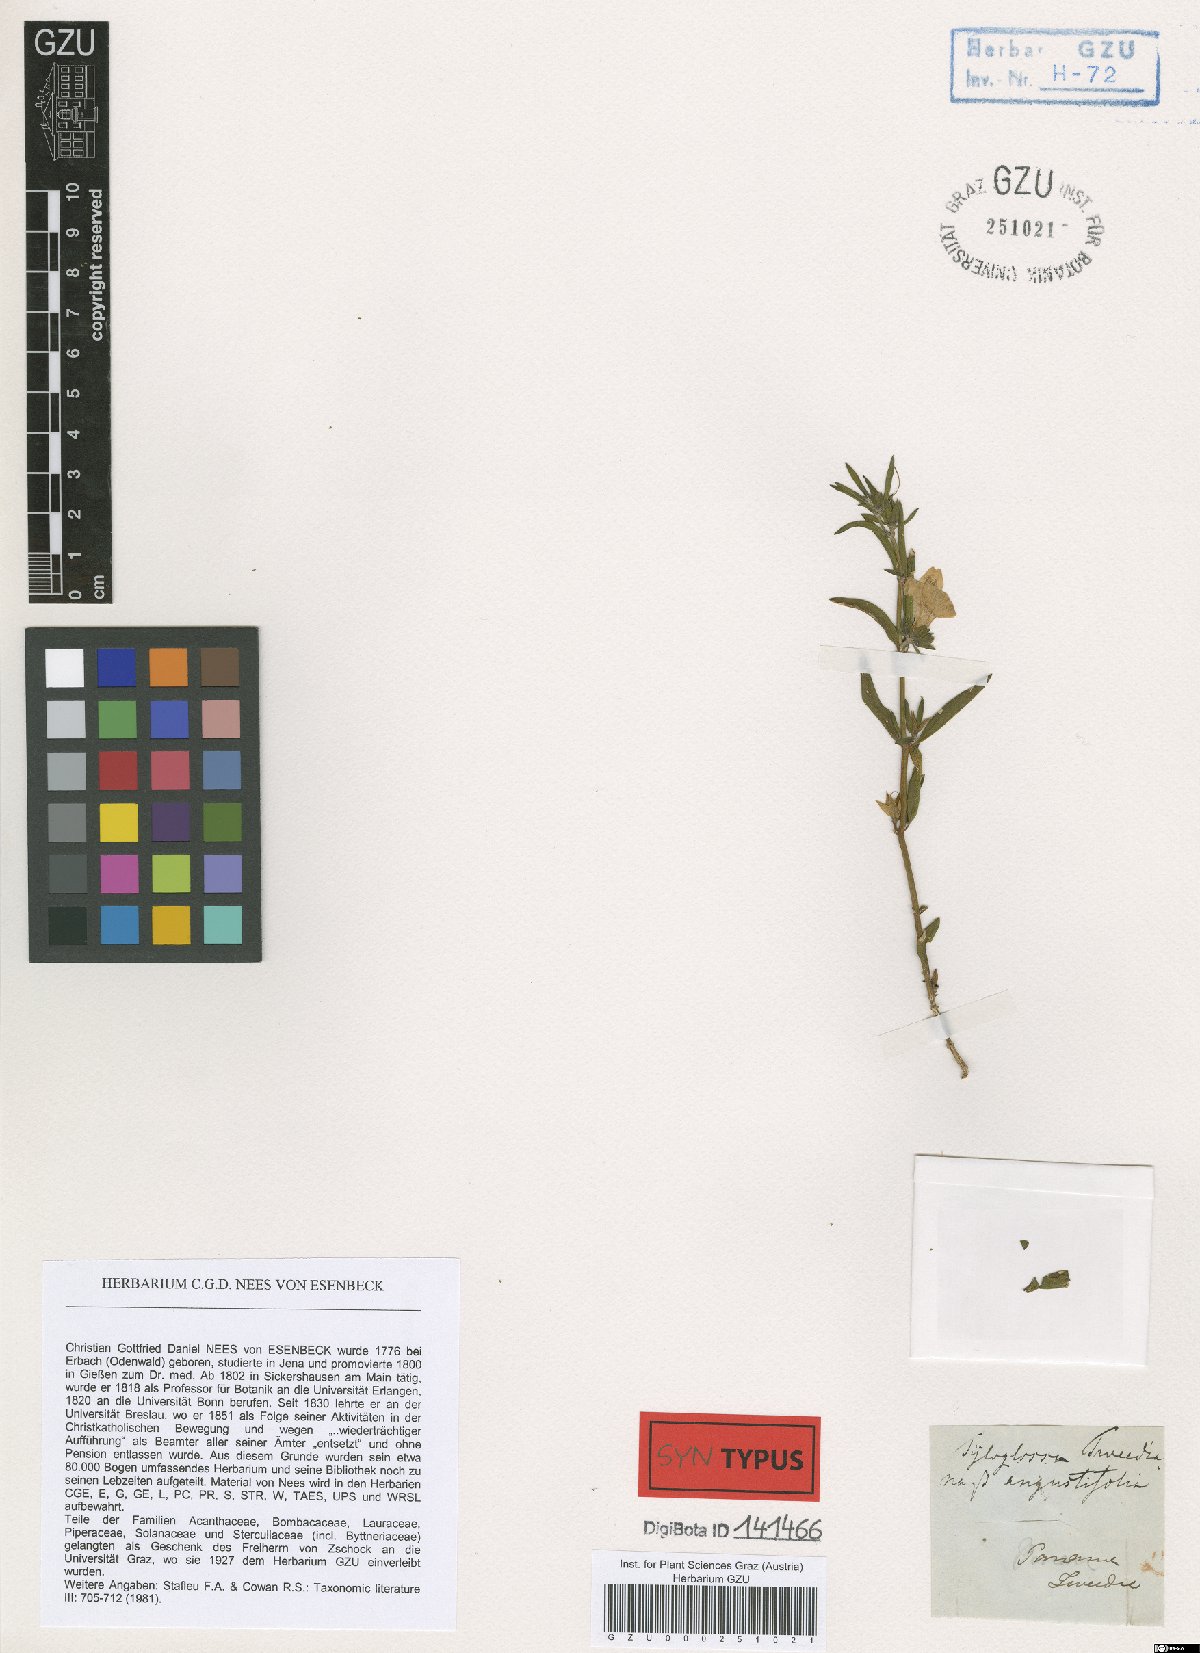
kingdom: Plantae
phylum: Tracheophyta
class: Magnoliopsida
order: Lamiales
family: Acanthaceae
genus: Poikilacanthus
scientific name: Poikilacanthus tweedianus
